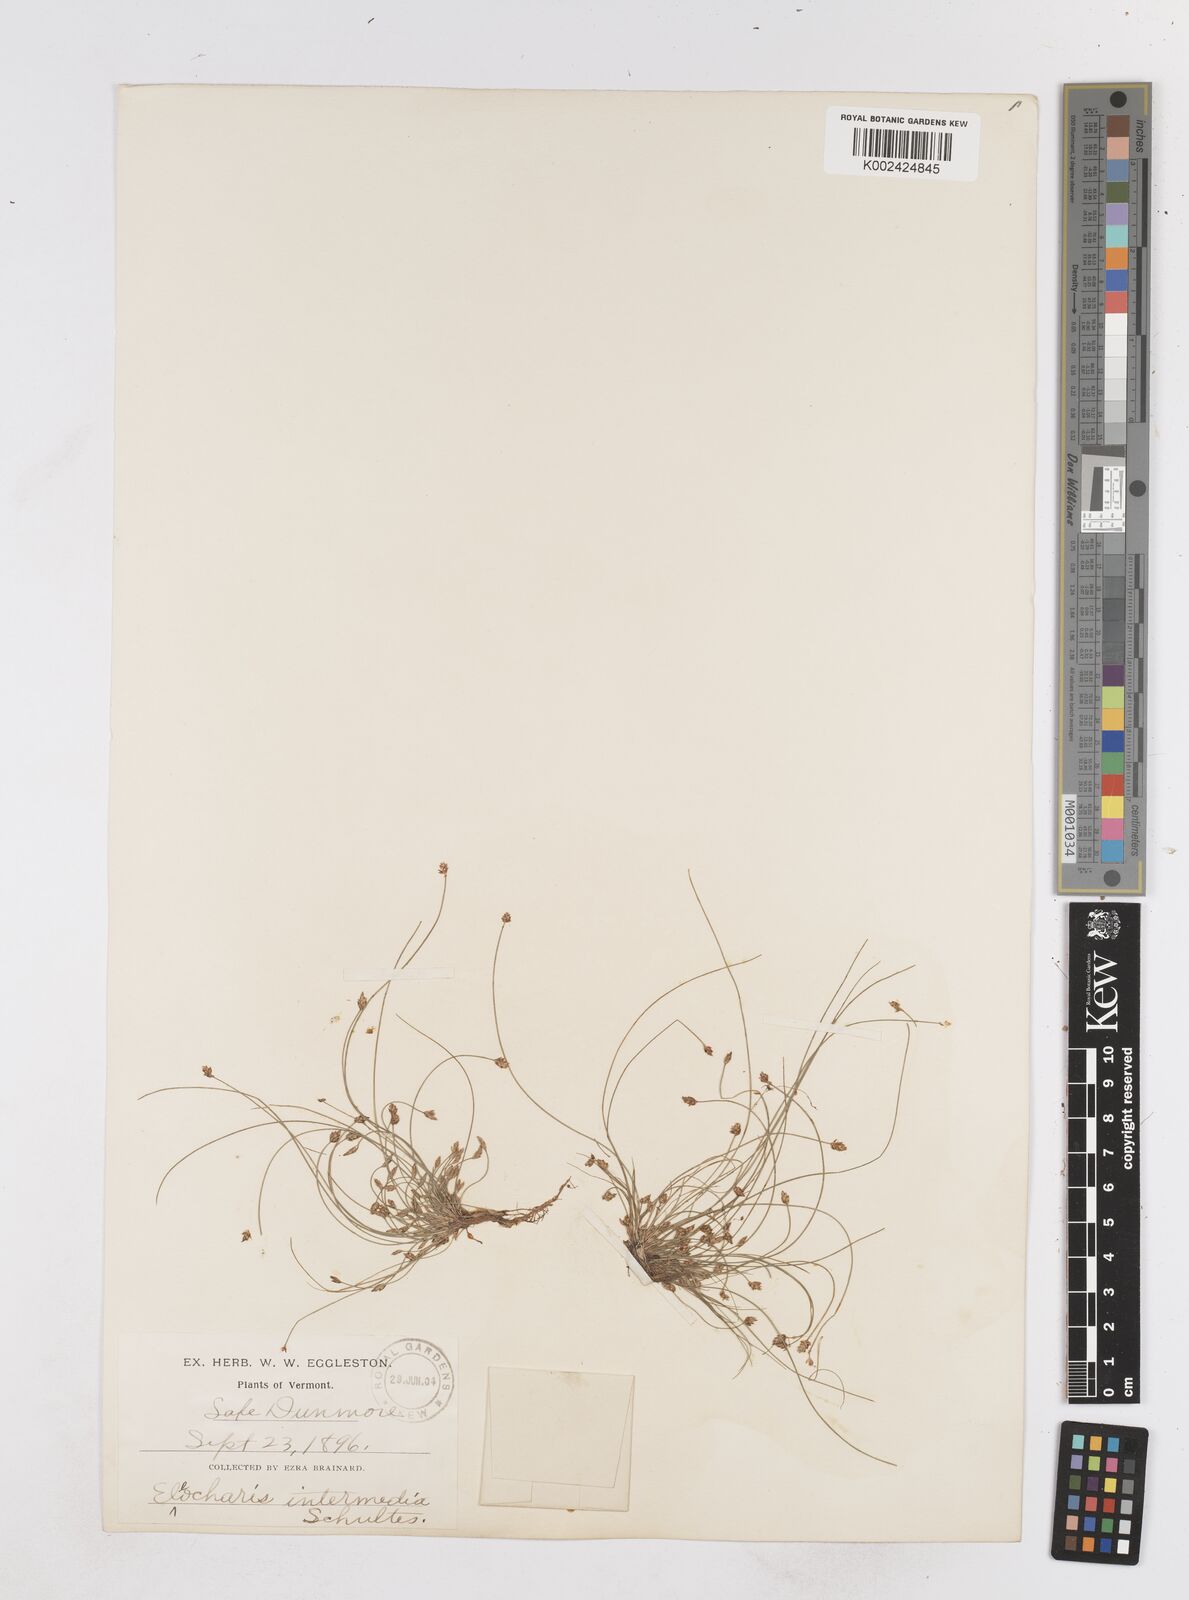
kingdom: Plantae
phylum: Tracheophyta
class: Liliopsida
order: Poales
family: Cyperaceae
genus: Eleocharis
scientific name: Eleocharis obtusa
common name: Blunt spikerush
